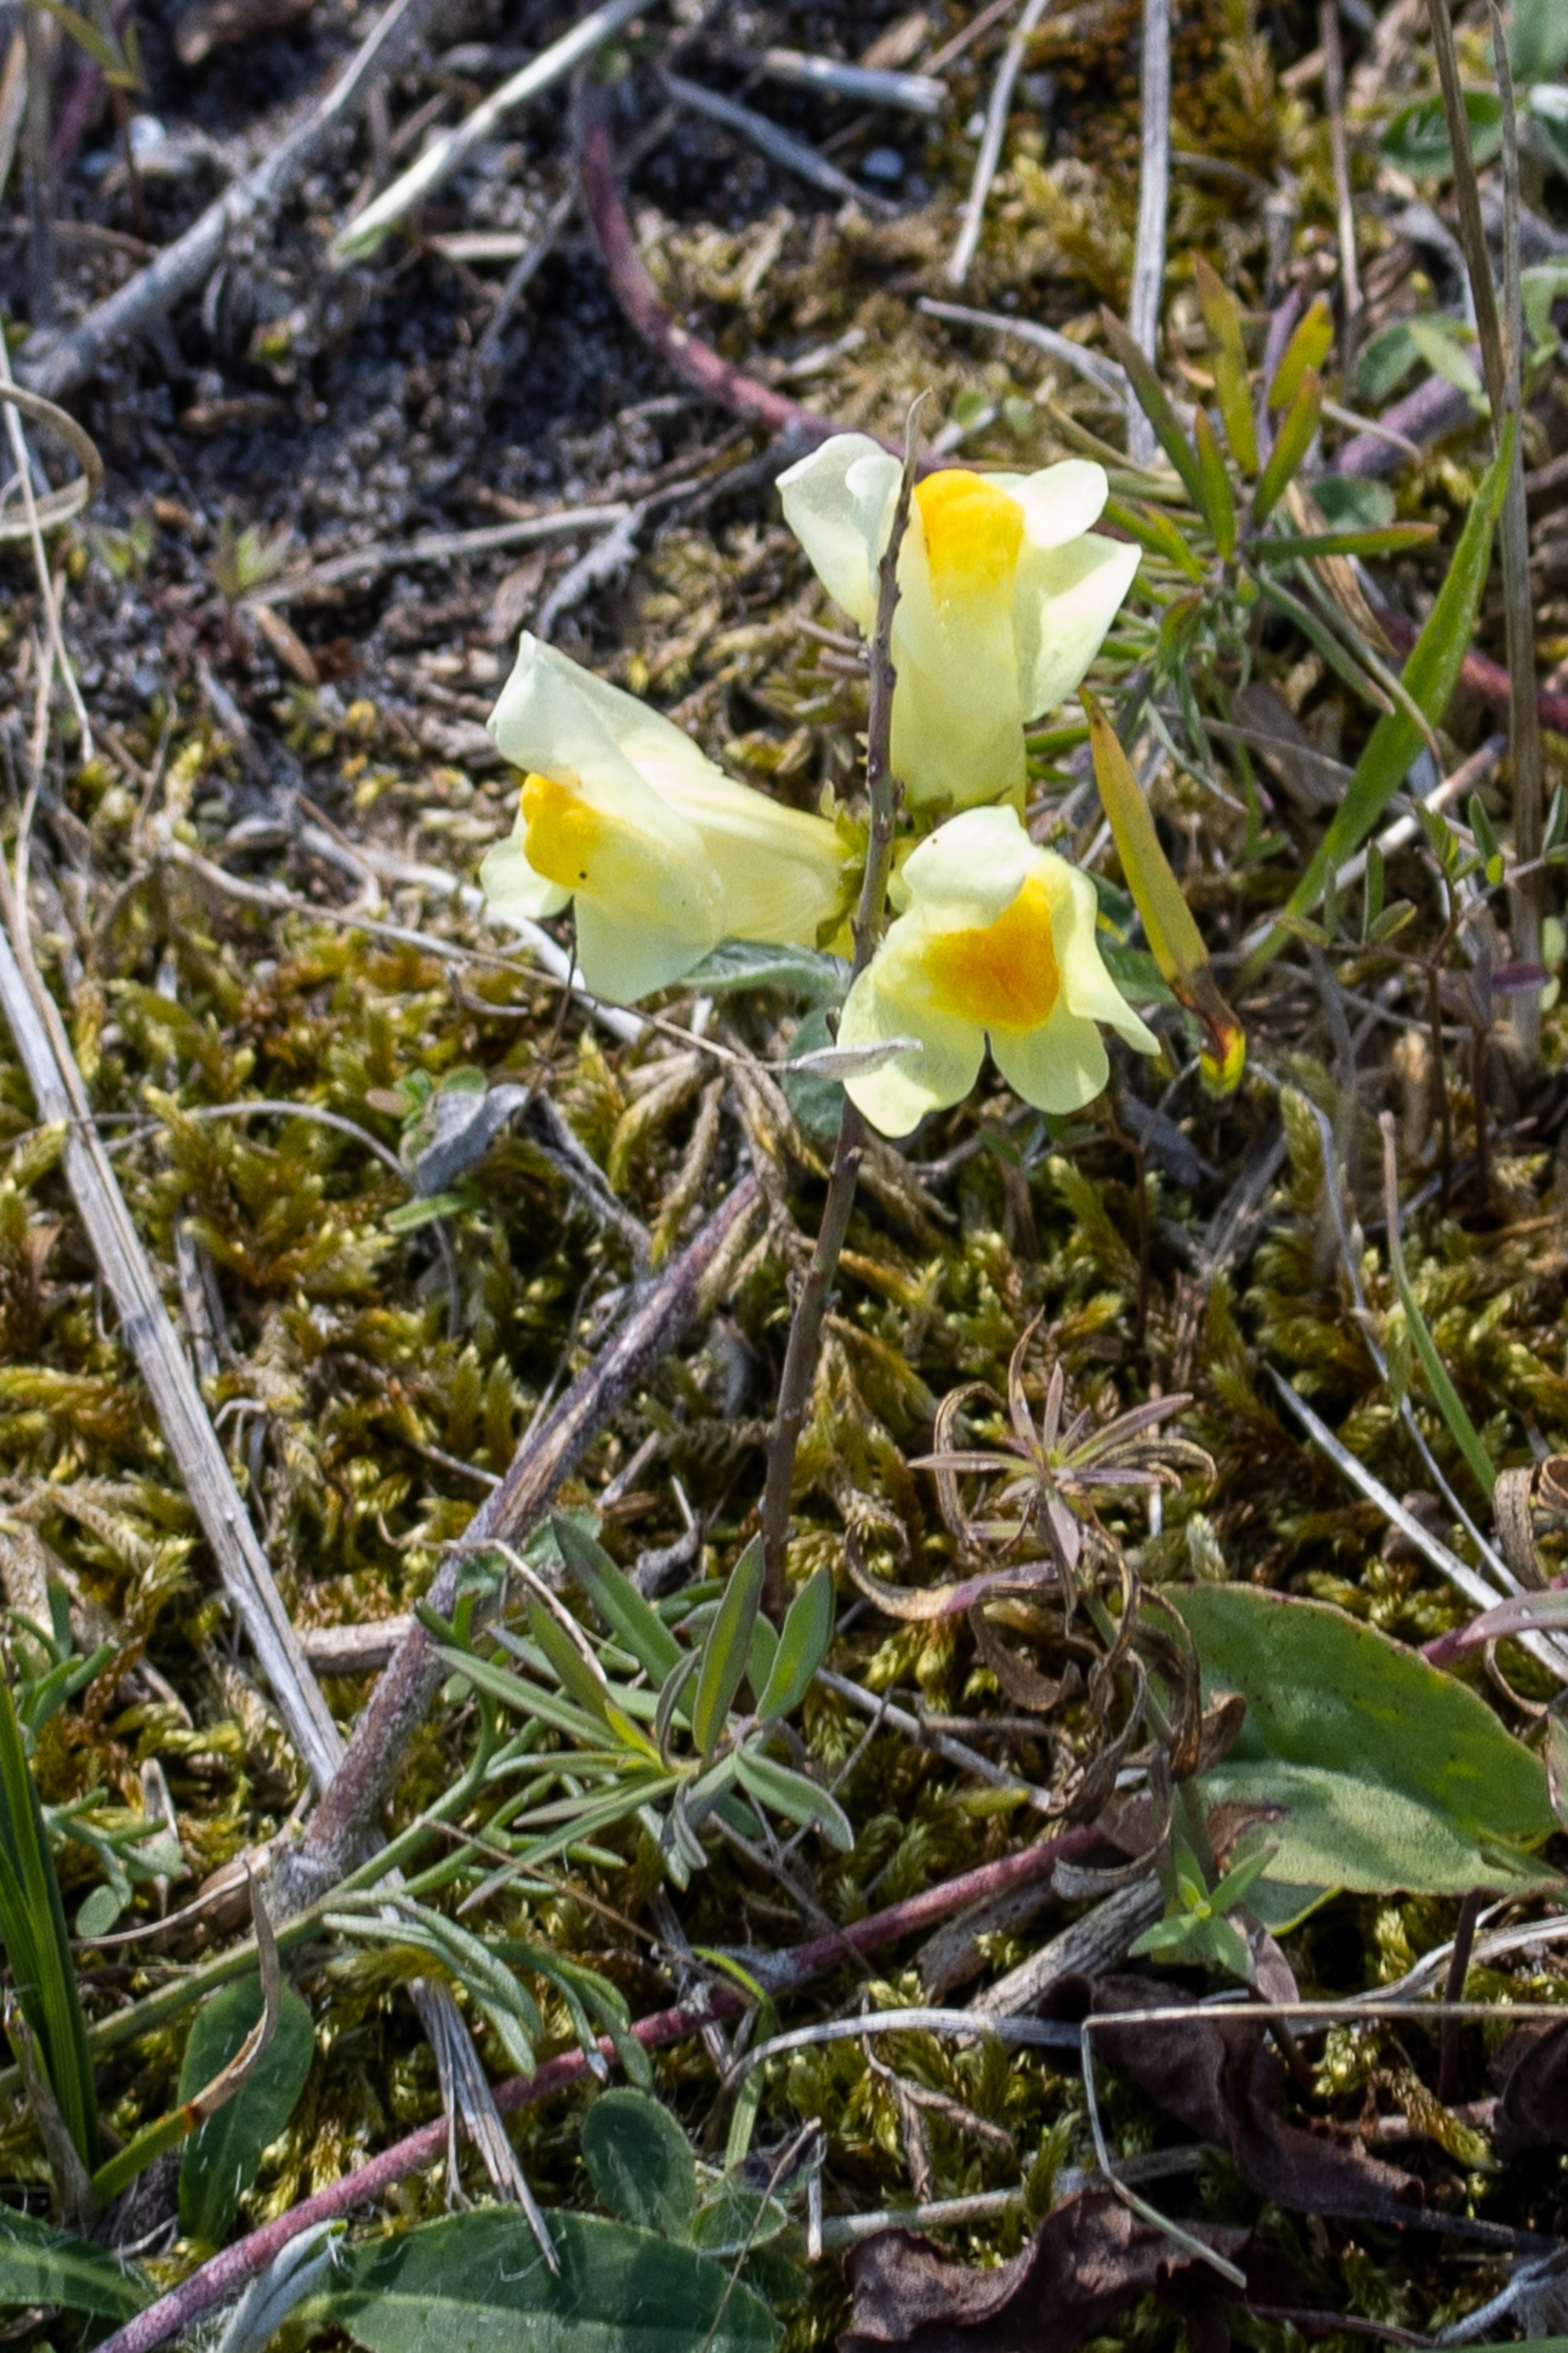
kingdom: Plantae
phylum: Tracheophyta
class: Magnoliopsida
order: Lamiales
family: Plantaginaceae
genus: Linaria
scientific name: Linaria vulgaris
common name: Almindelig torskemund
